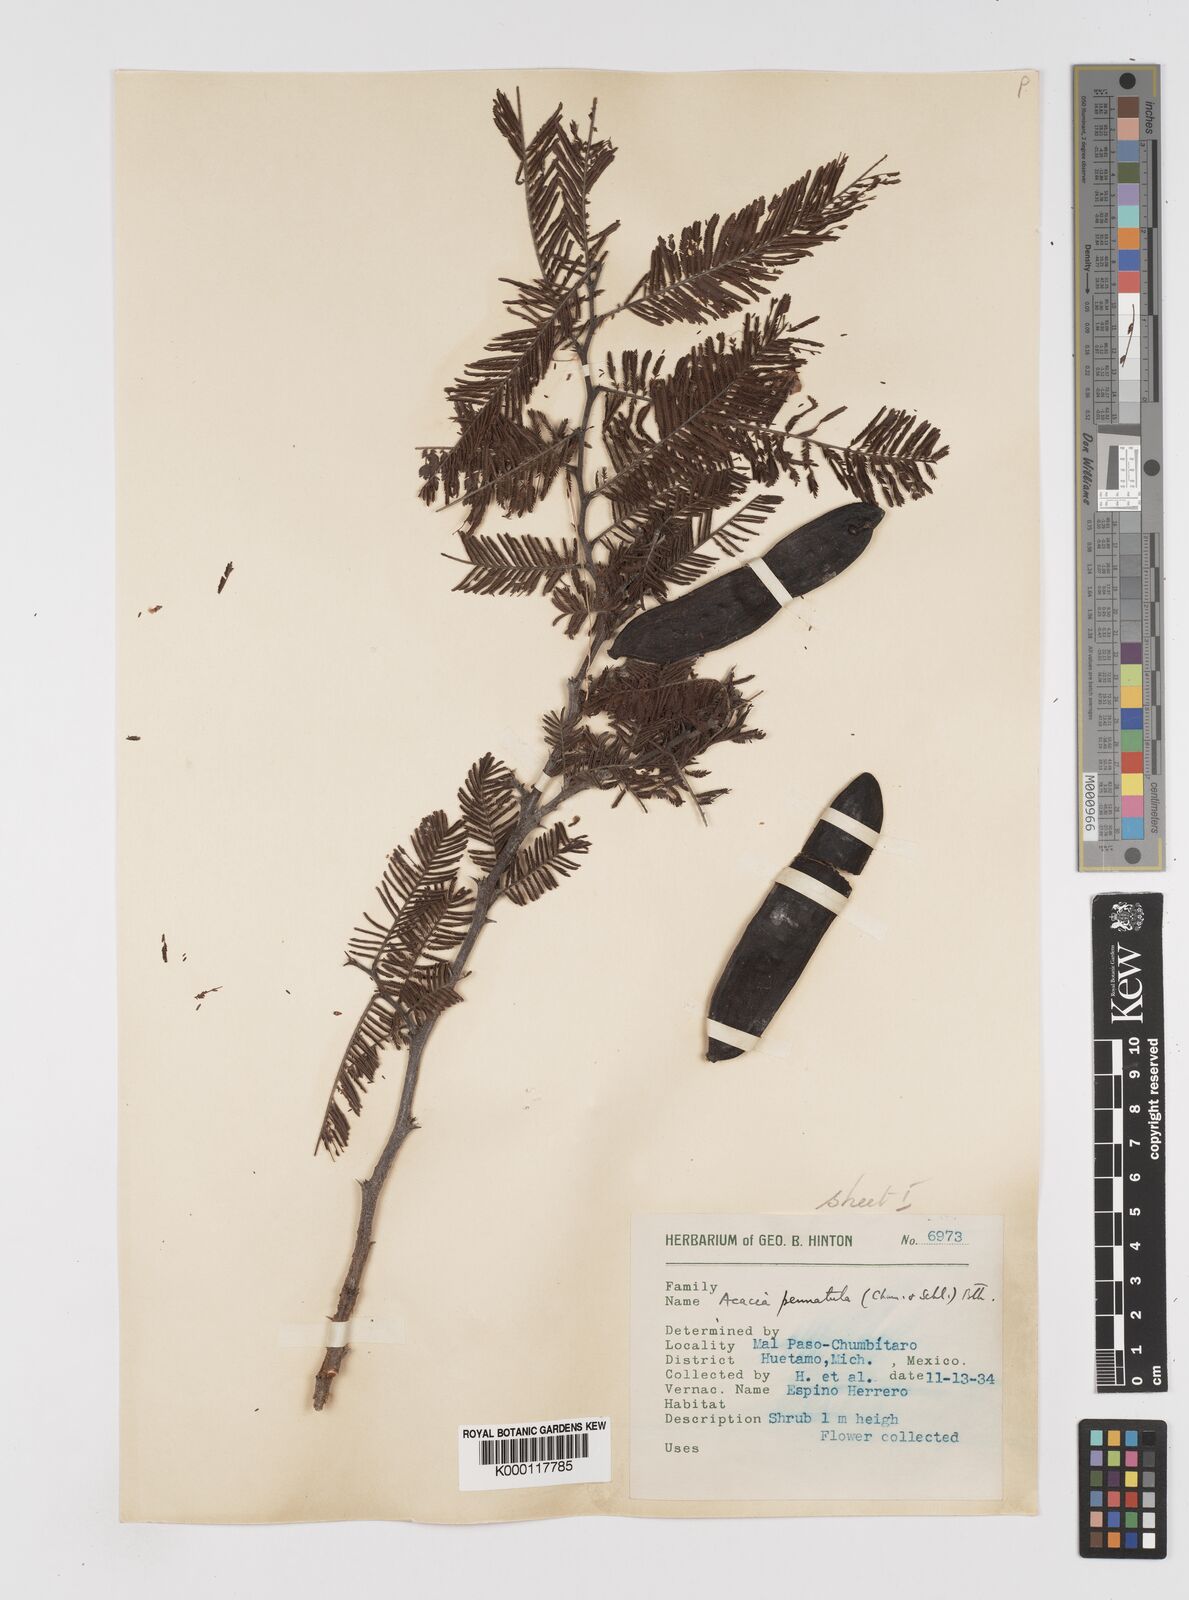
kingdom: Plantae
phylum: Tracheophyta
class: Magnoliopsida
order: Fabales
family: Fabaceae
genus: Vachellia
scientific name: Vachellia pennatula
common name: Fern-leaf acacia
